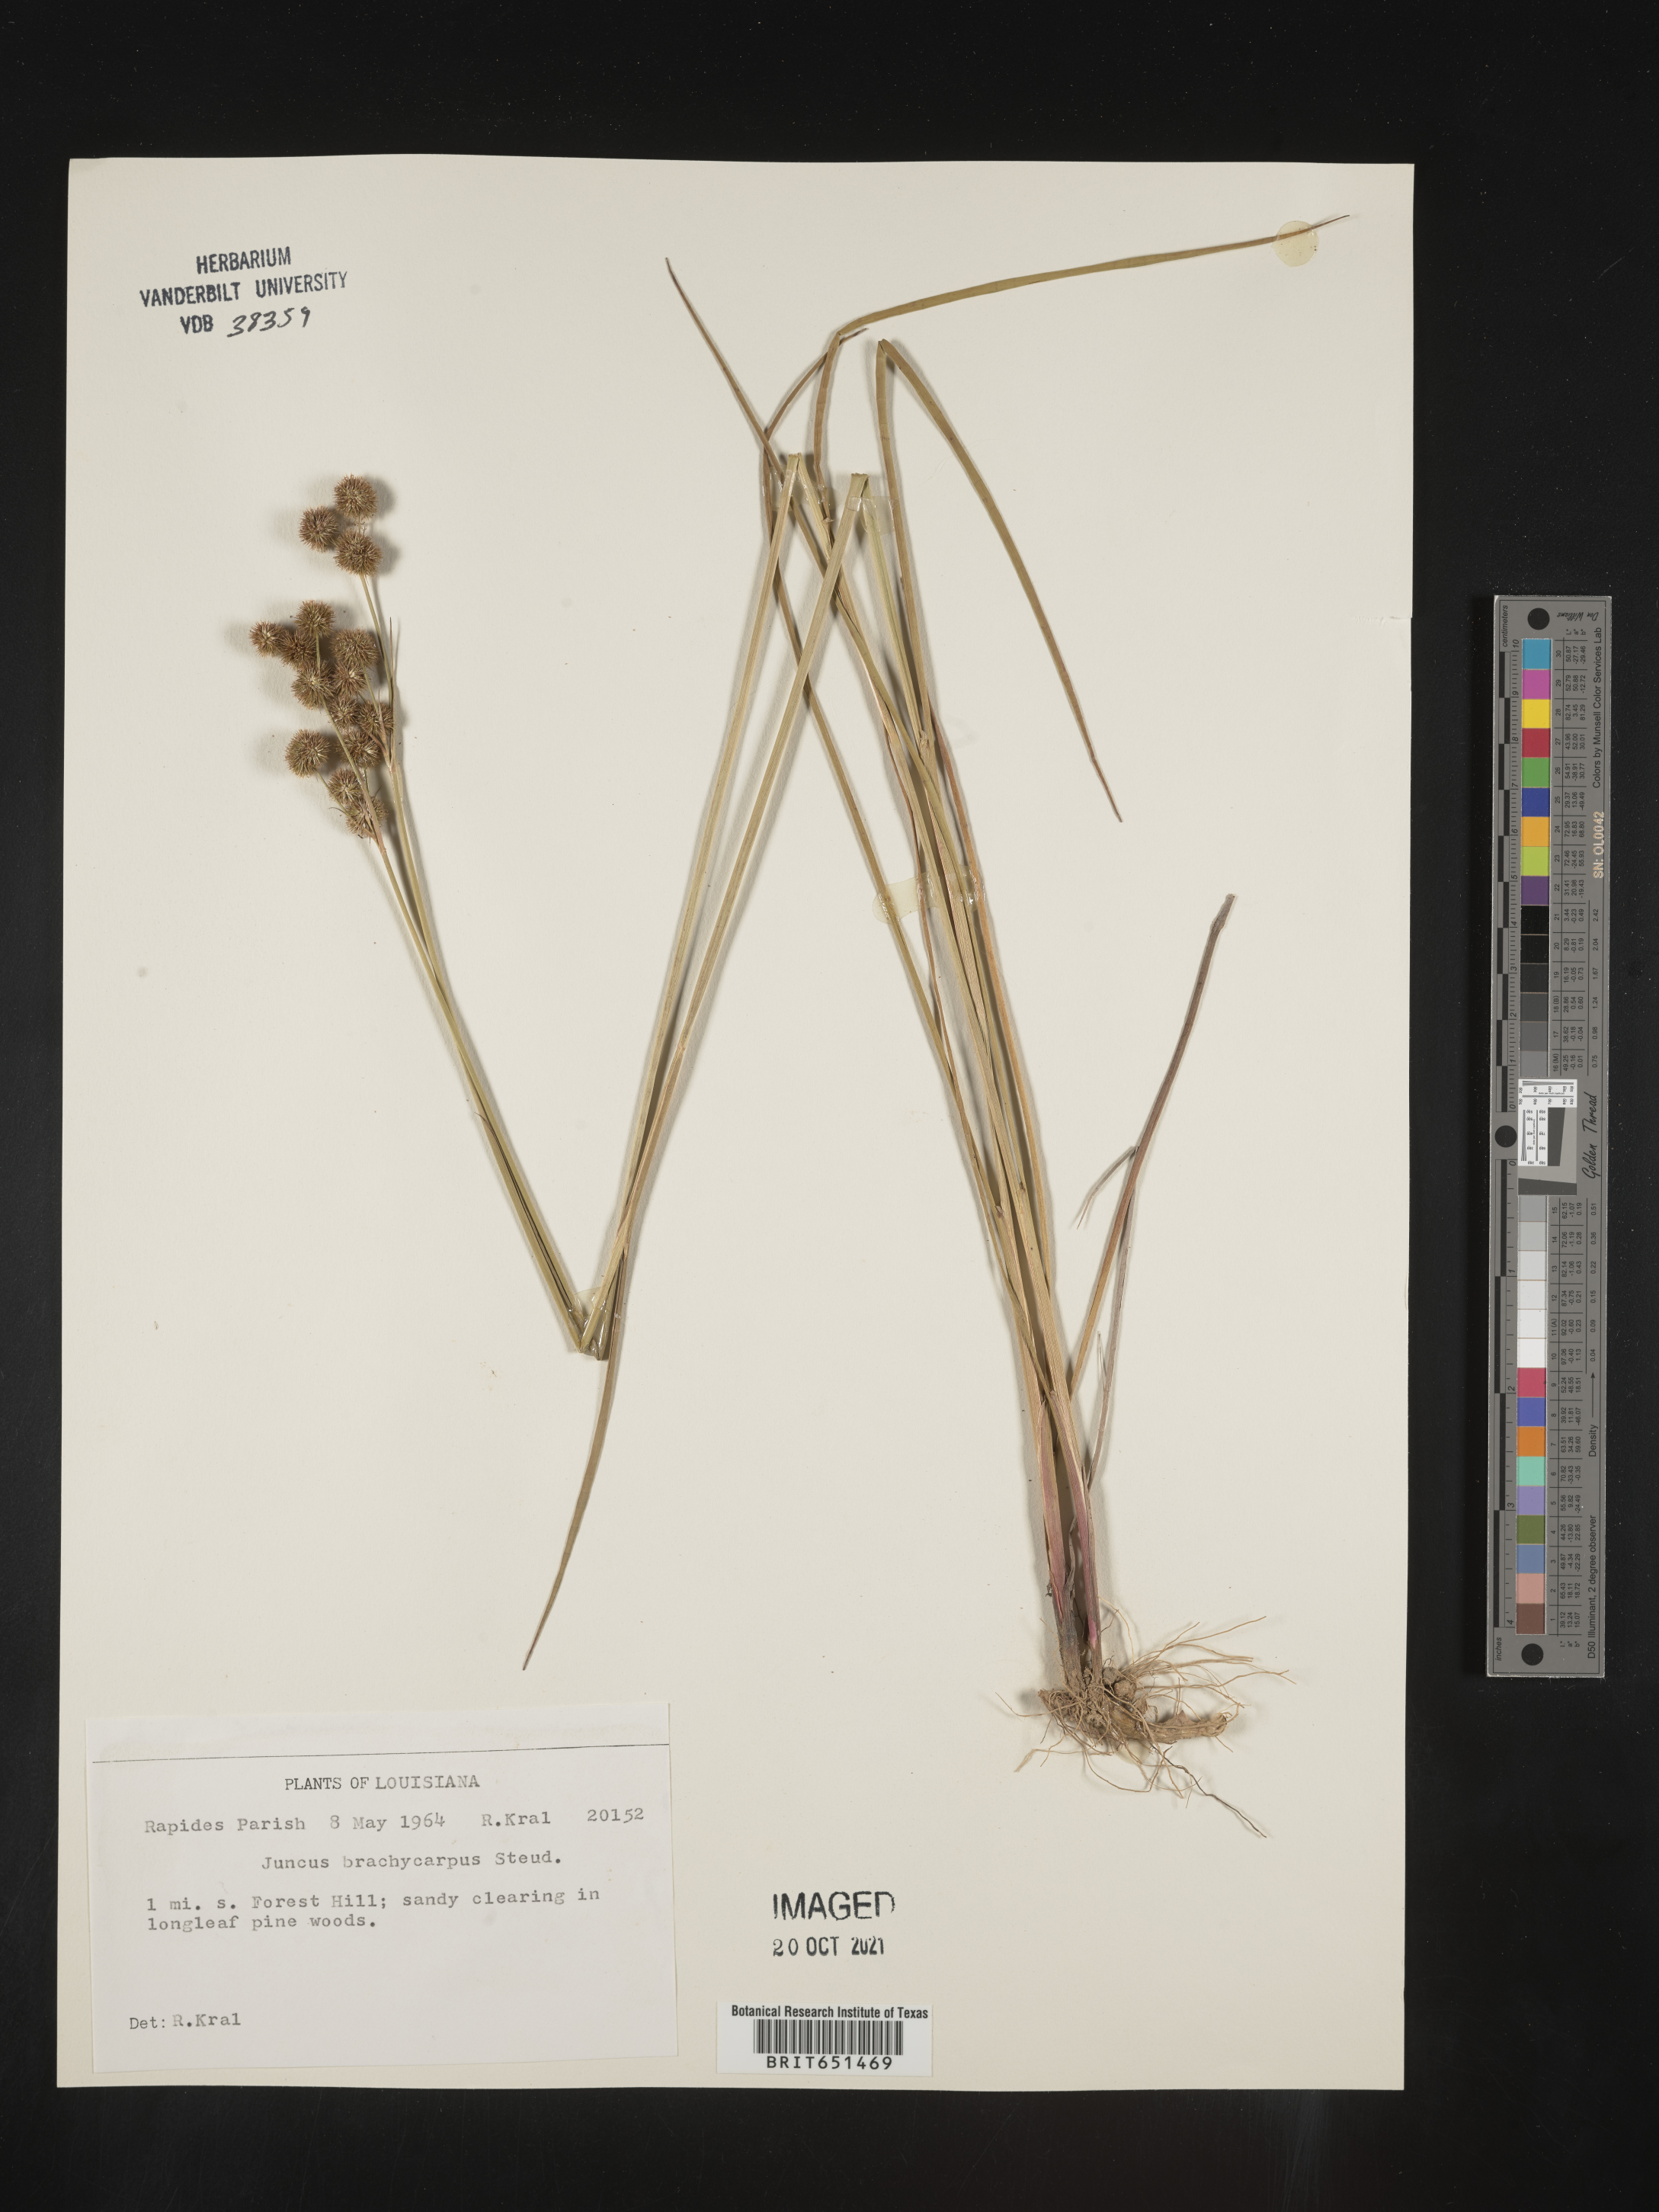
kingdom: Plantae
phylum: Tracheophyta
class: Liliopsida
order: Poales
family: Juncaceae
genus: Juncus
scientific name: Juncus brachycarpus
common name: Shore rush
